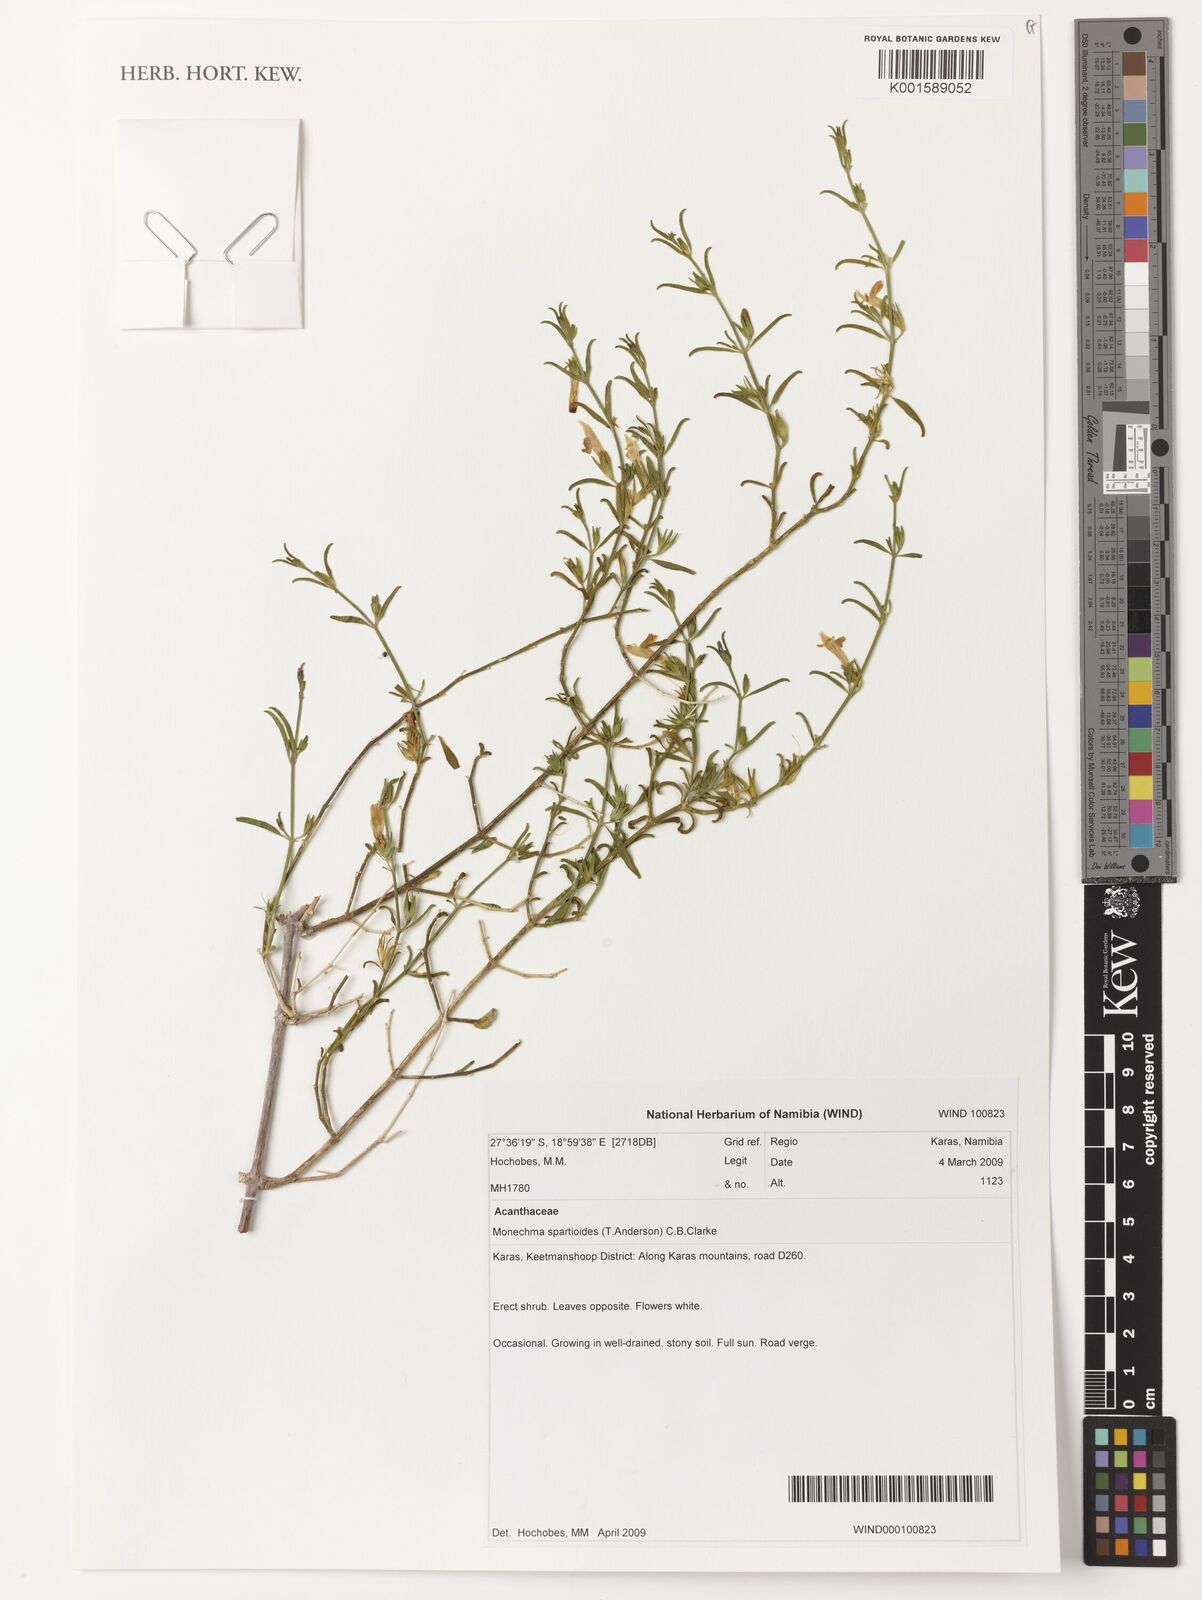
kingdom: Plantae
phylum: Tracheophyta
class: Magnoliopsida
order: Lamiales
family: Acanthaceae
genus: Monechma
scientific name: Monechma spartioides
